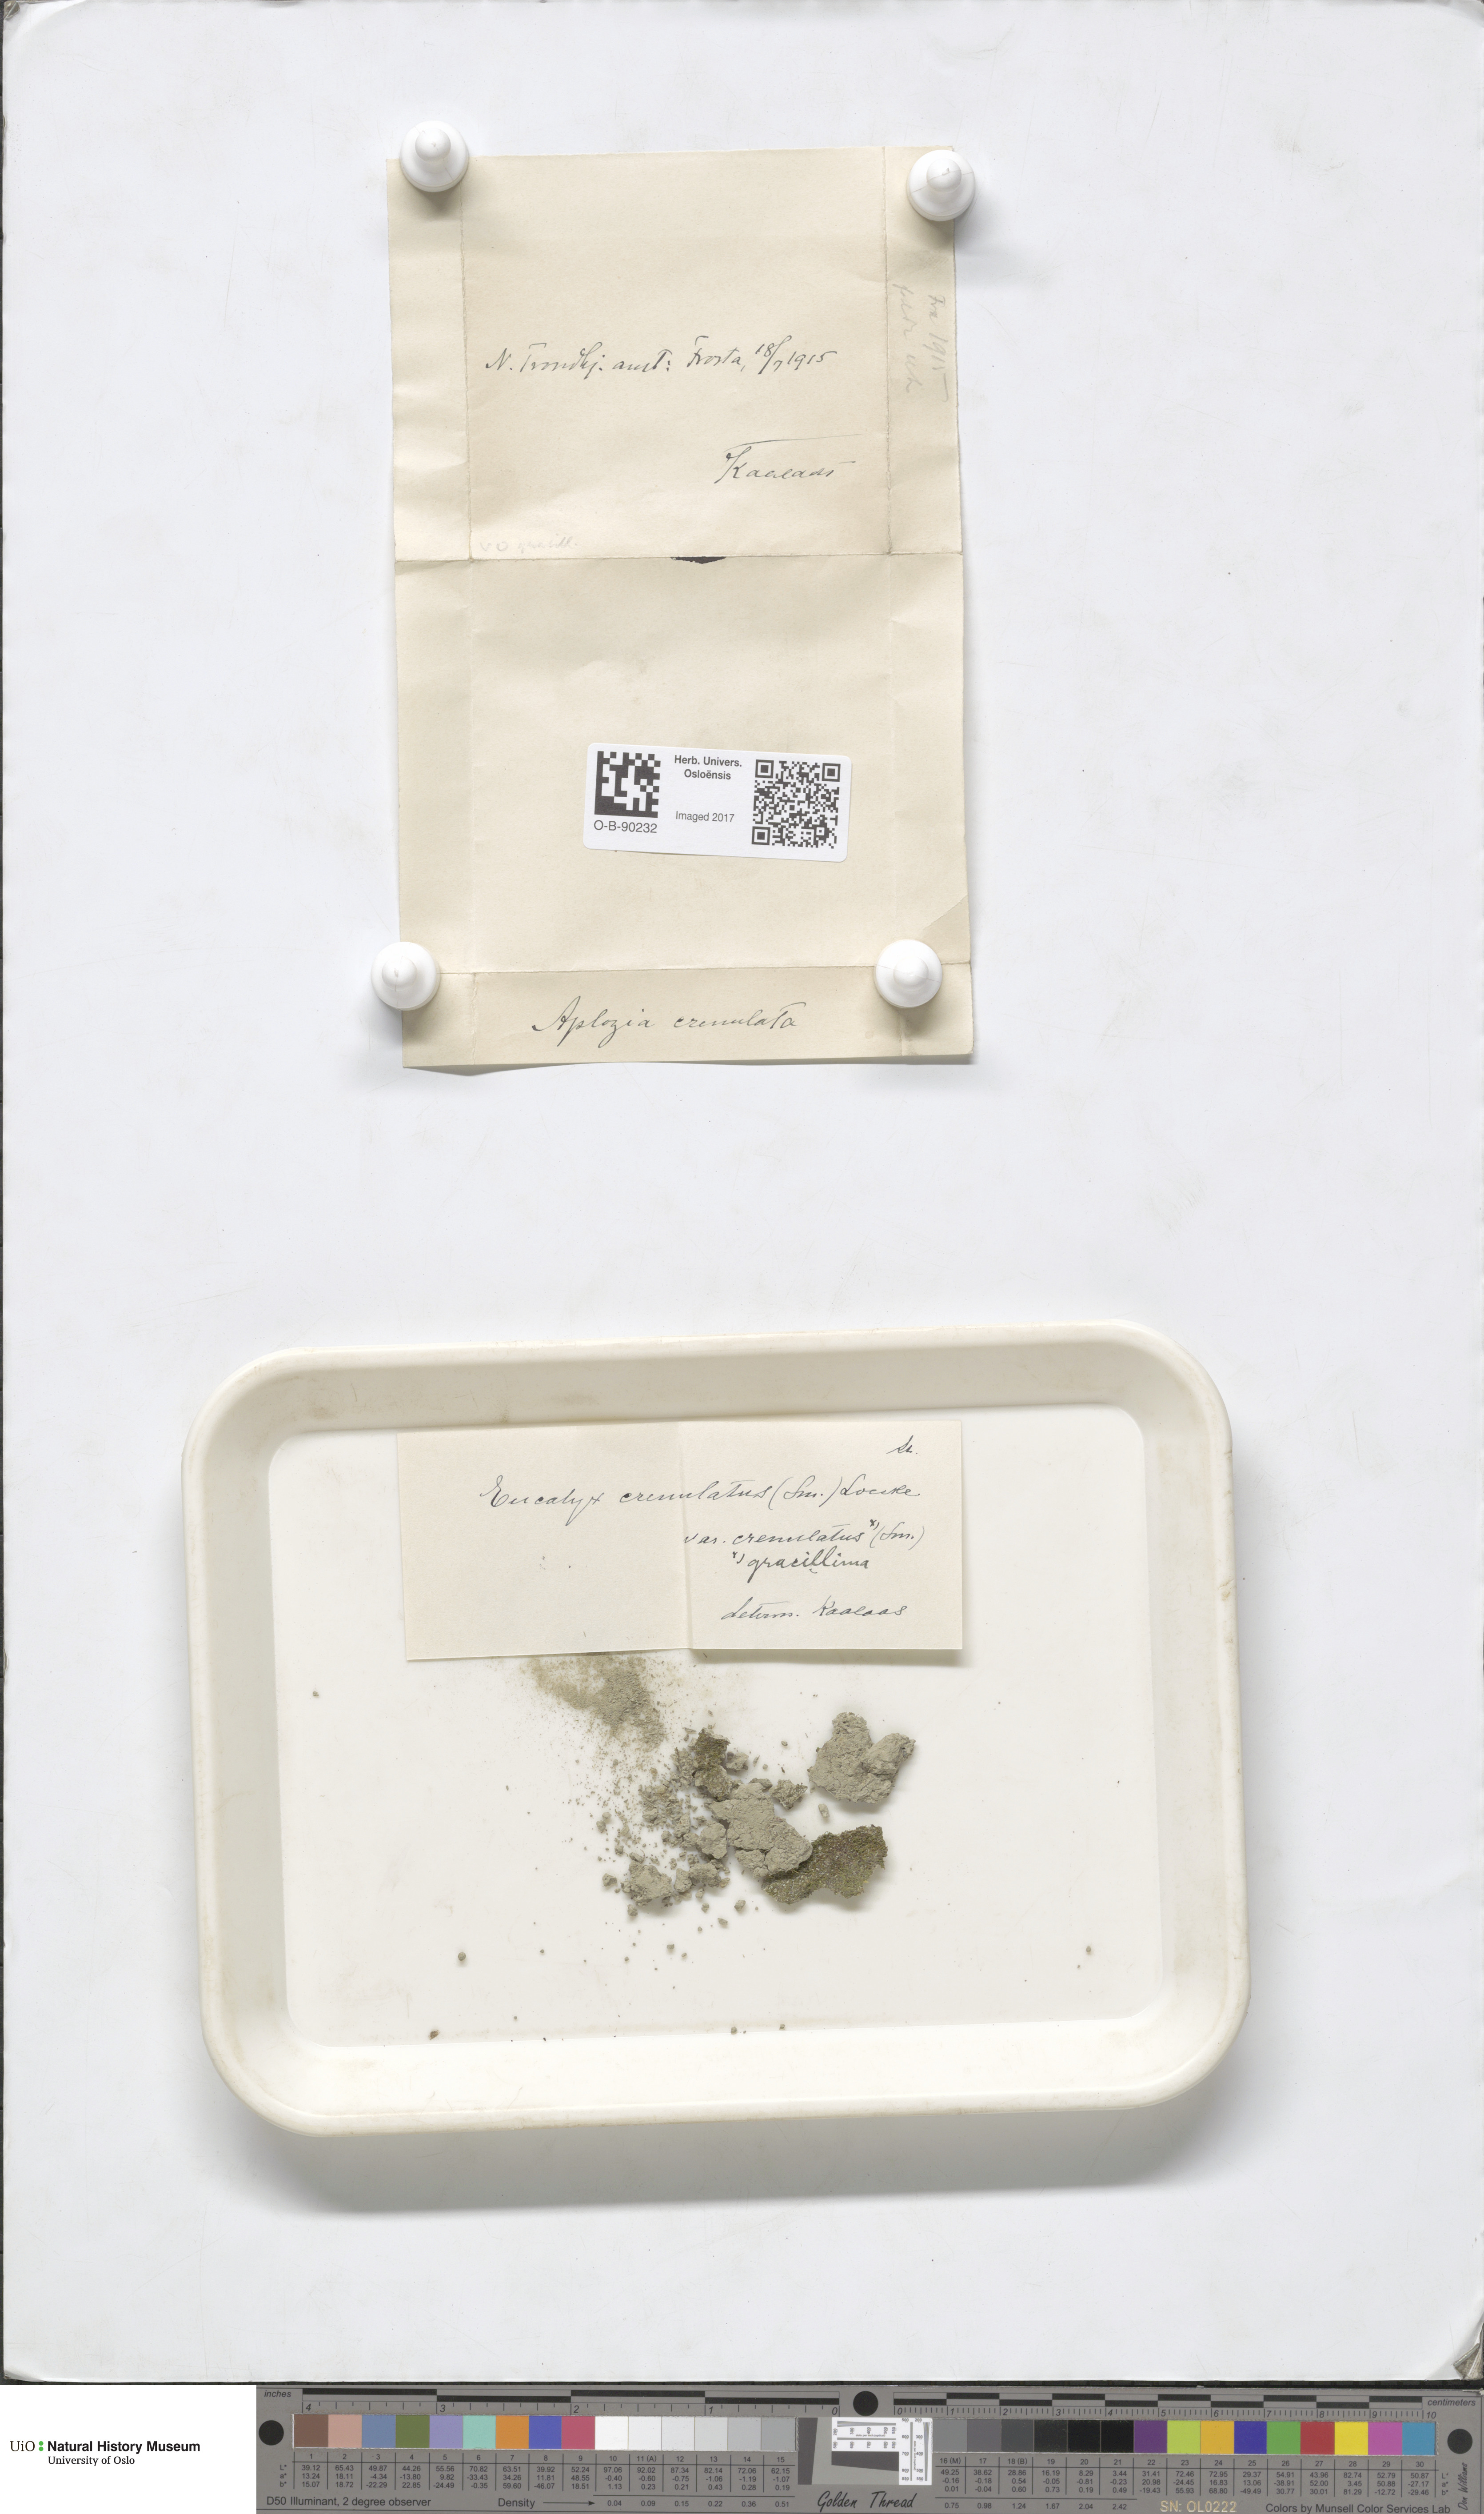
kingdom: Plantae
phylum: Marchantiophyta
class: Jungermanniopsida
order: Jungermanniales
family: Solenostomataceae
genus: Solenostoma
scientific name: Solenostoma gracillimum
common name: Crenulated flapwort
